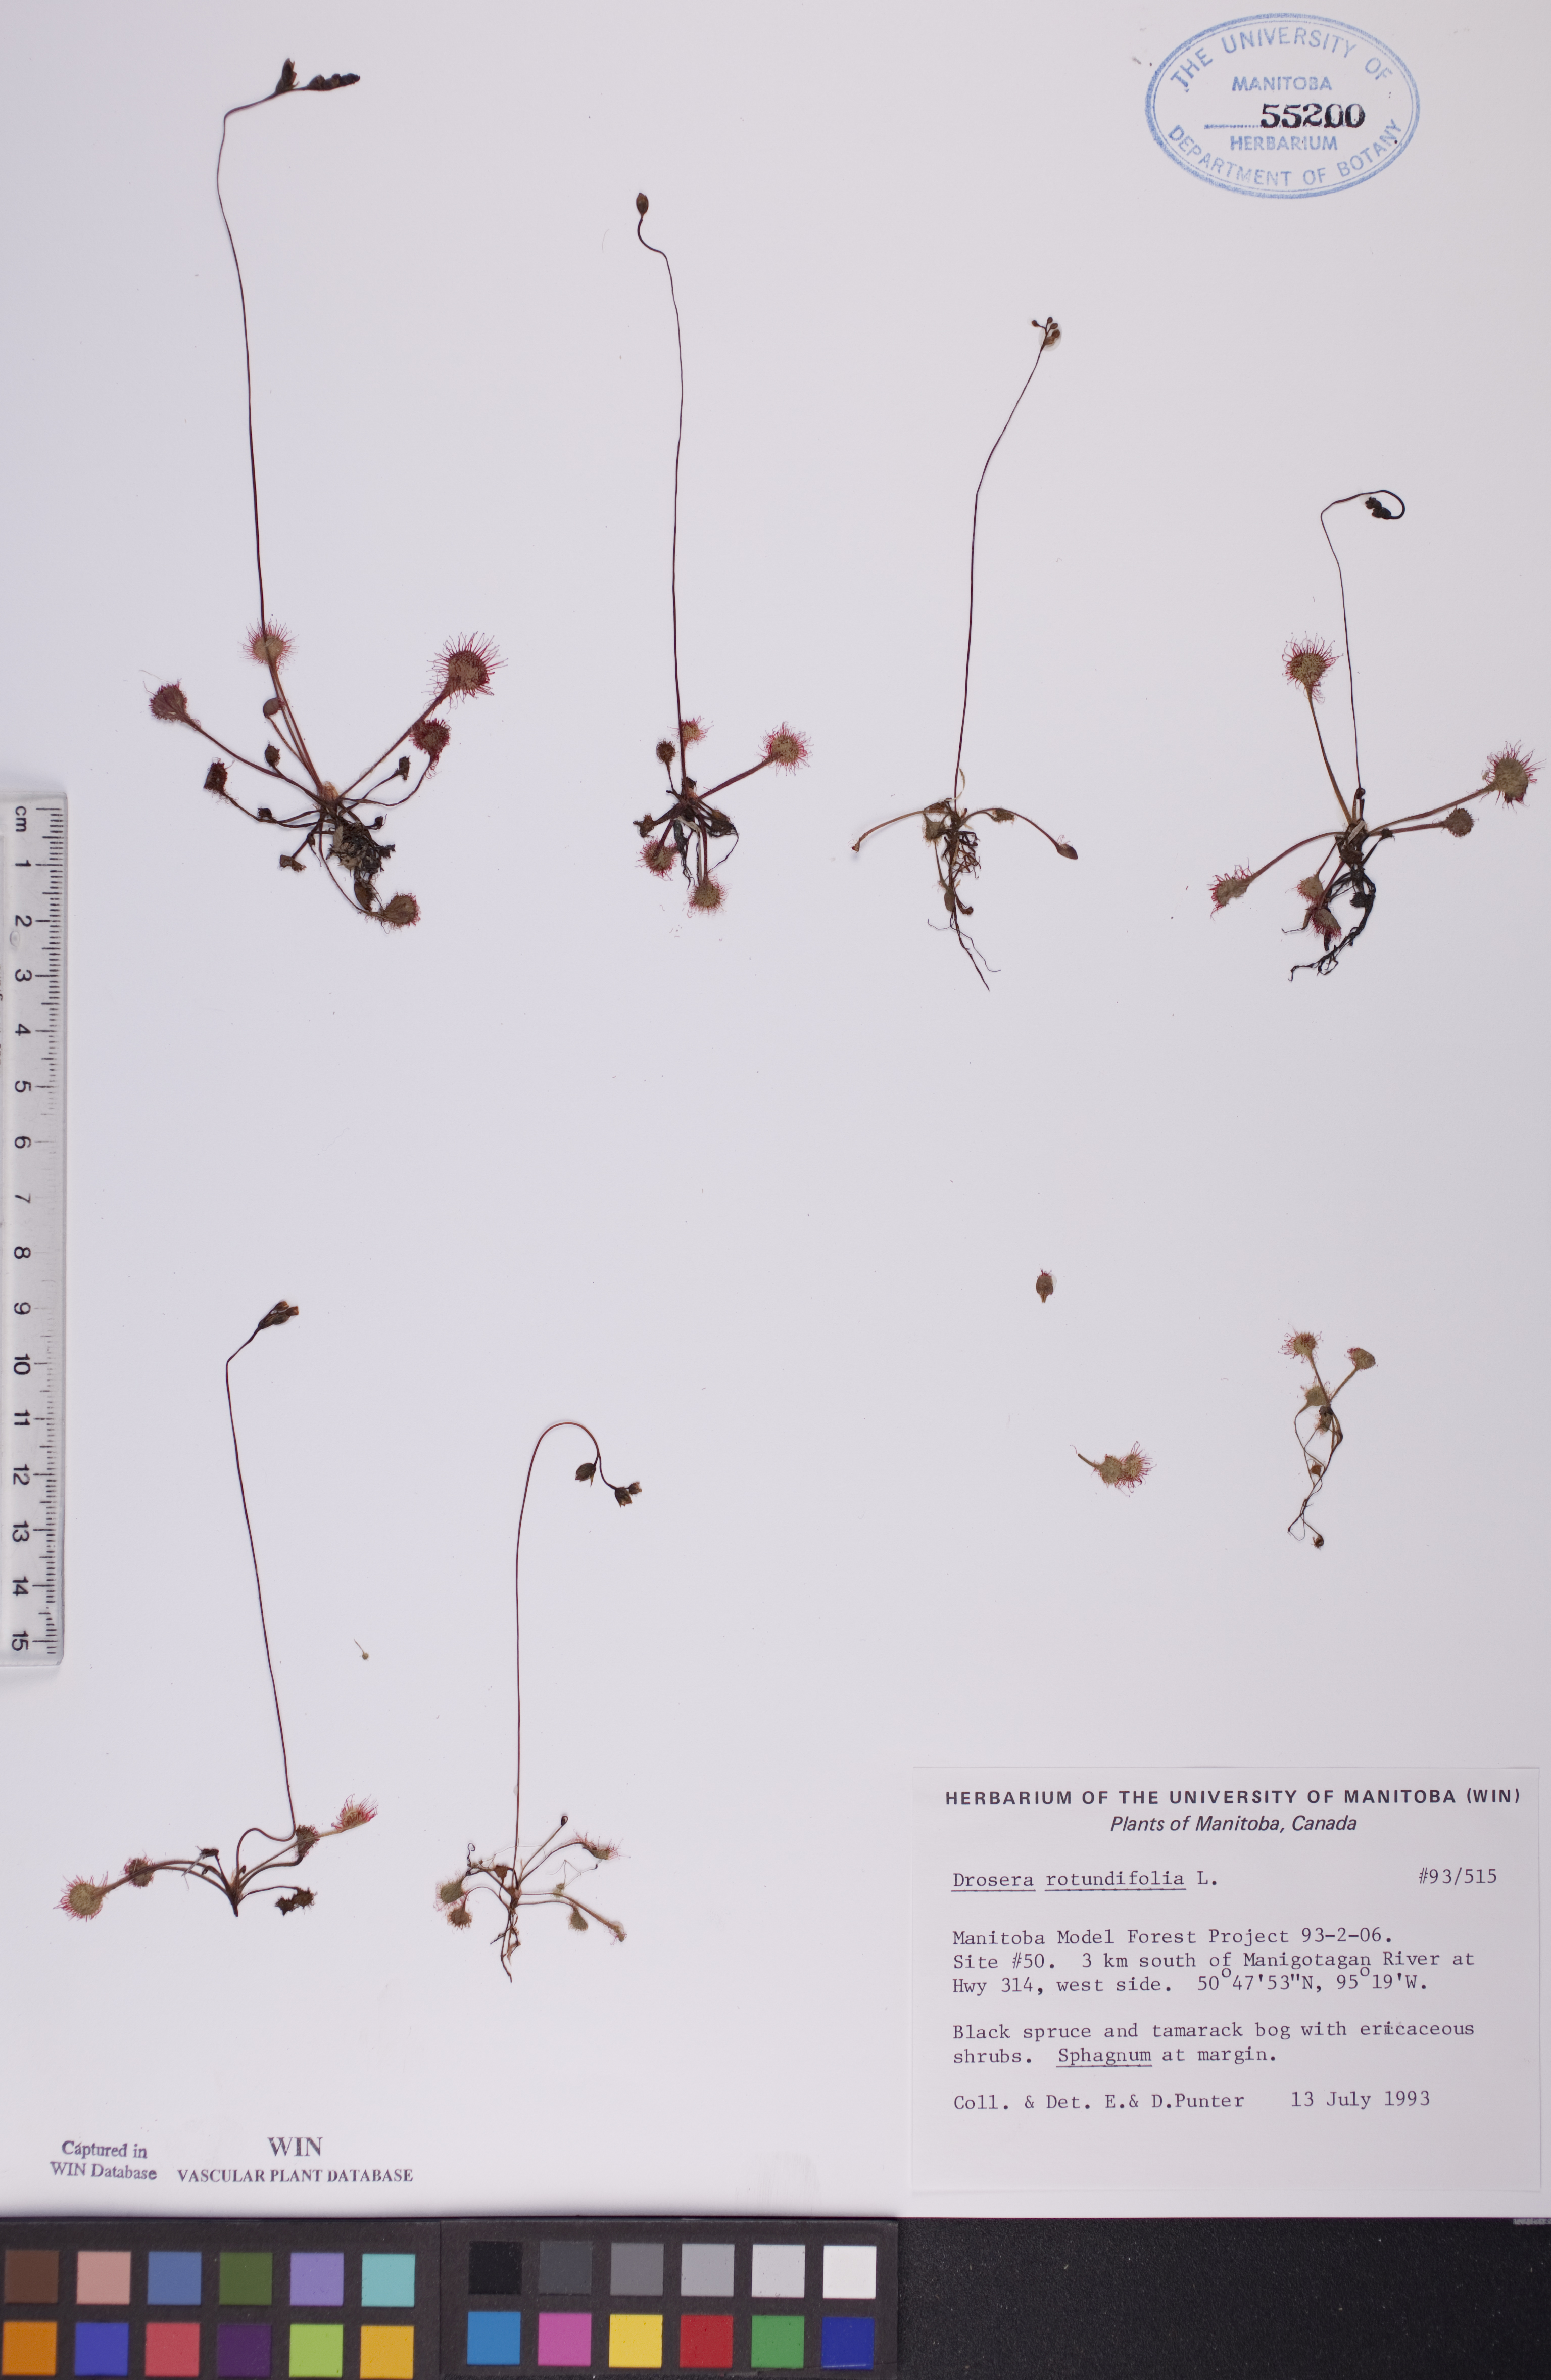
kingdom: Plantae
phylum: Tracheophyta
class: Magnoliopsida
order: Caryophyllales
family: Droseraceae
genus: Drosera
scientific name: Drosera rotundifolia
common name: Round-leaved sundew
